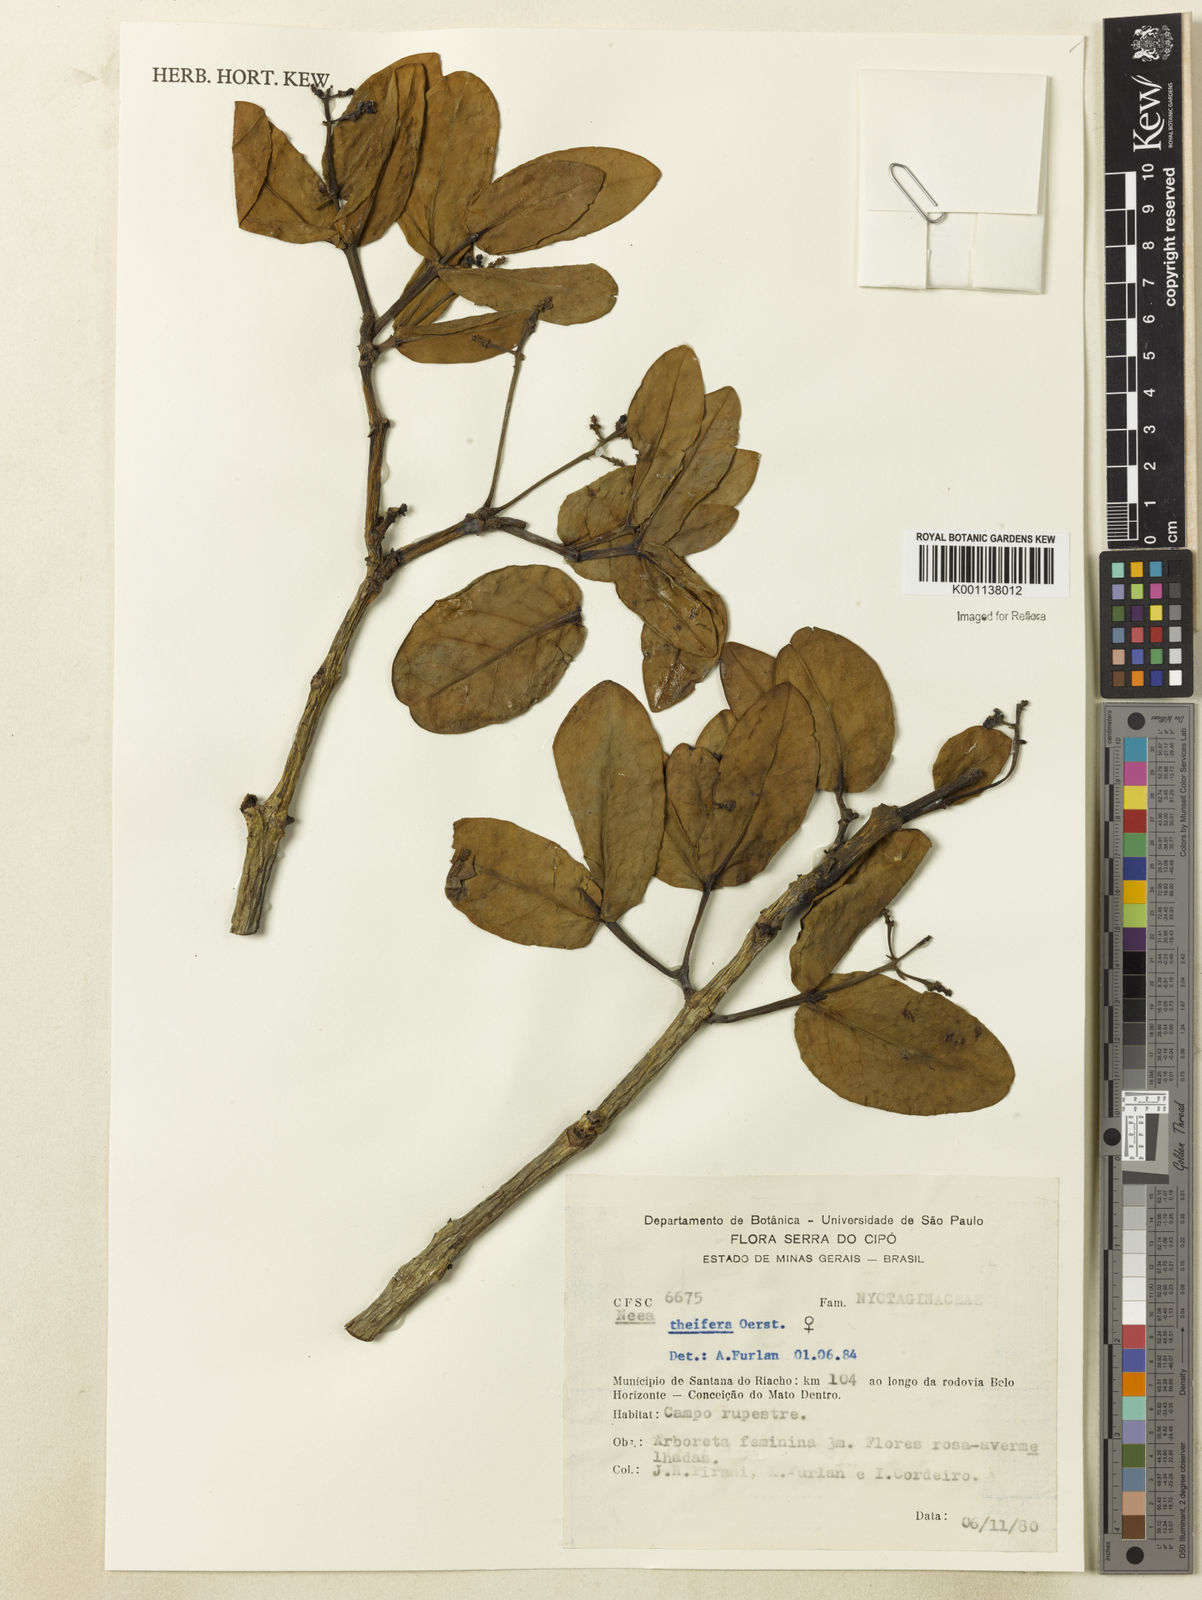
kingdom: Plantae
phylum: Tracheophyta
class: Magnoliopsida
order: Caryophyllales
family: Nyctaginaceae
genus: Neea
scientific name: Neea theifera
